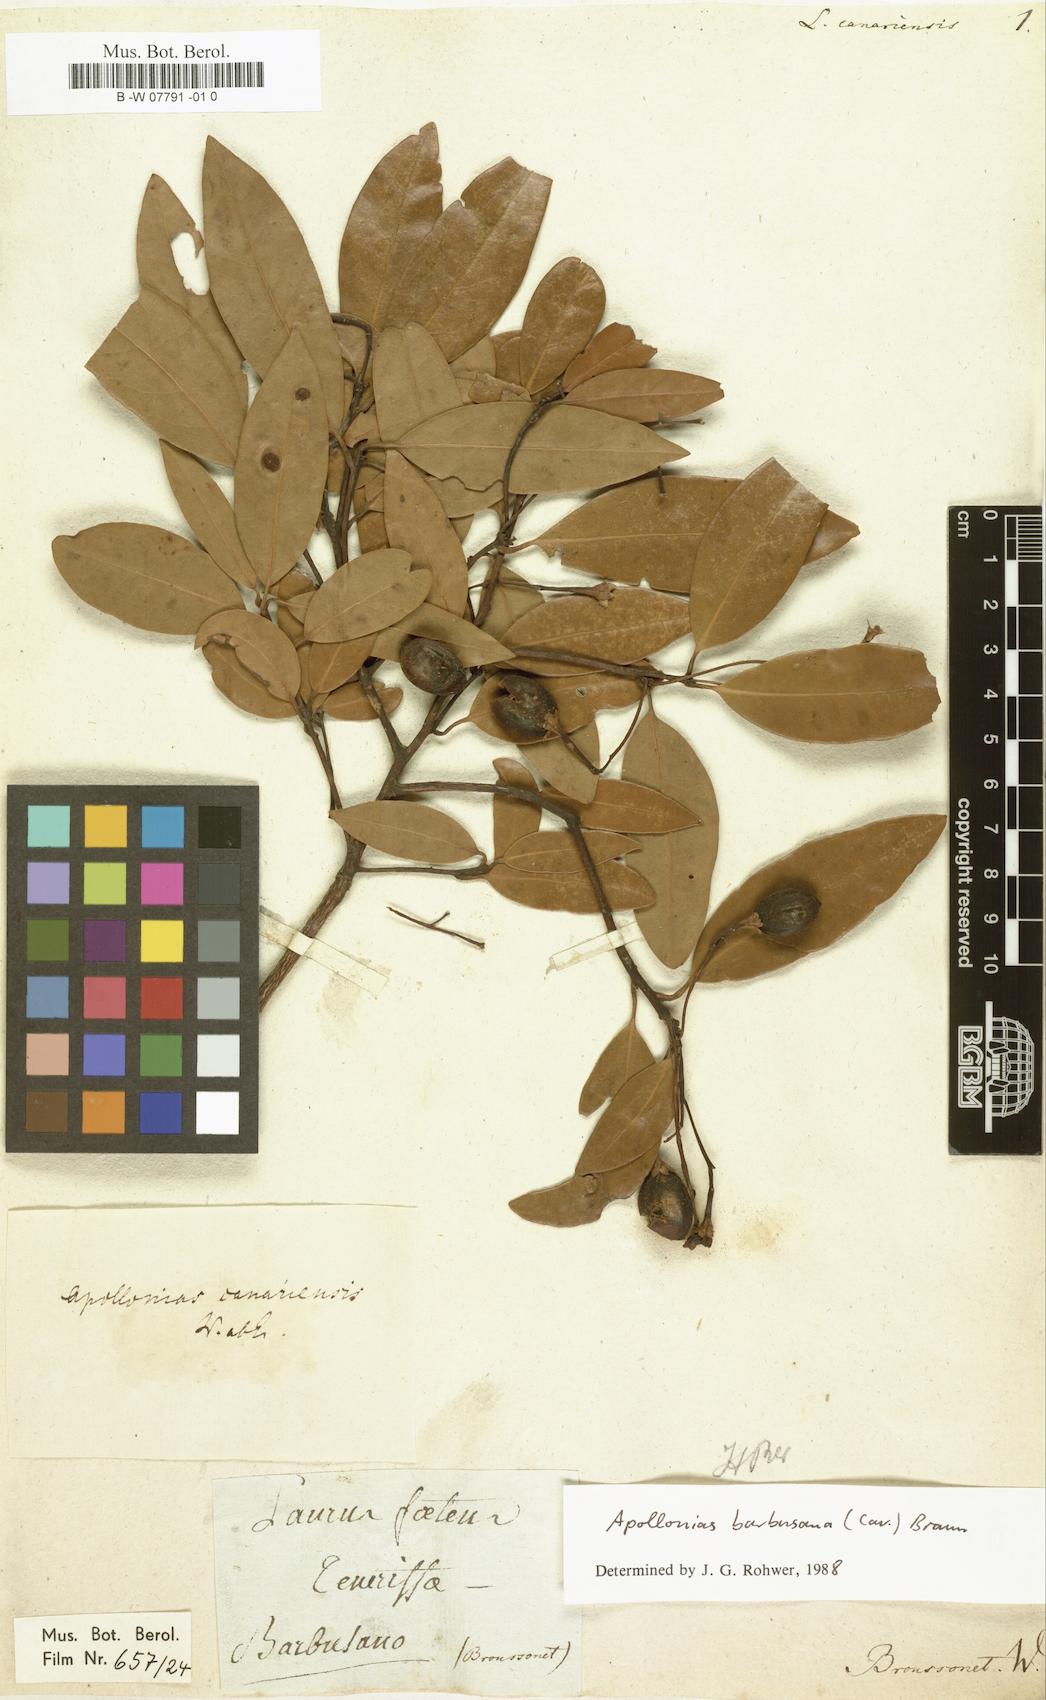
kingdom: Plantae
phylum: Tracheophyta
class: Magnoliopsida
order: Laurales
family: Lauraceae
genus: Apollonias
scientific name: Apollonias barbujana
